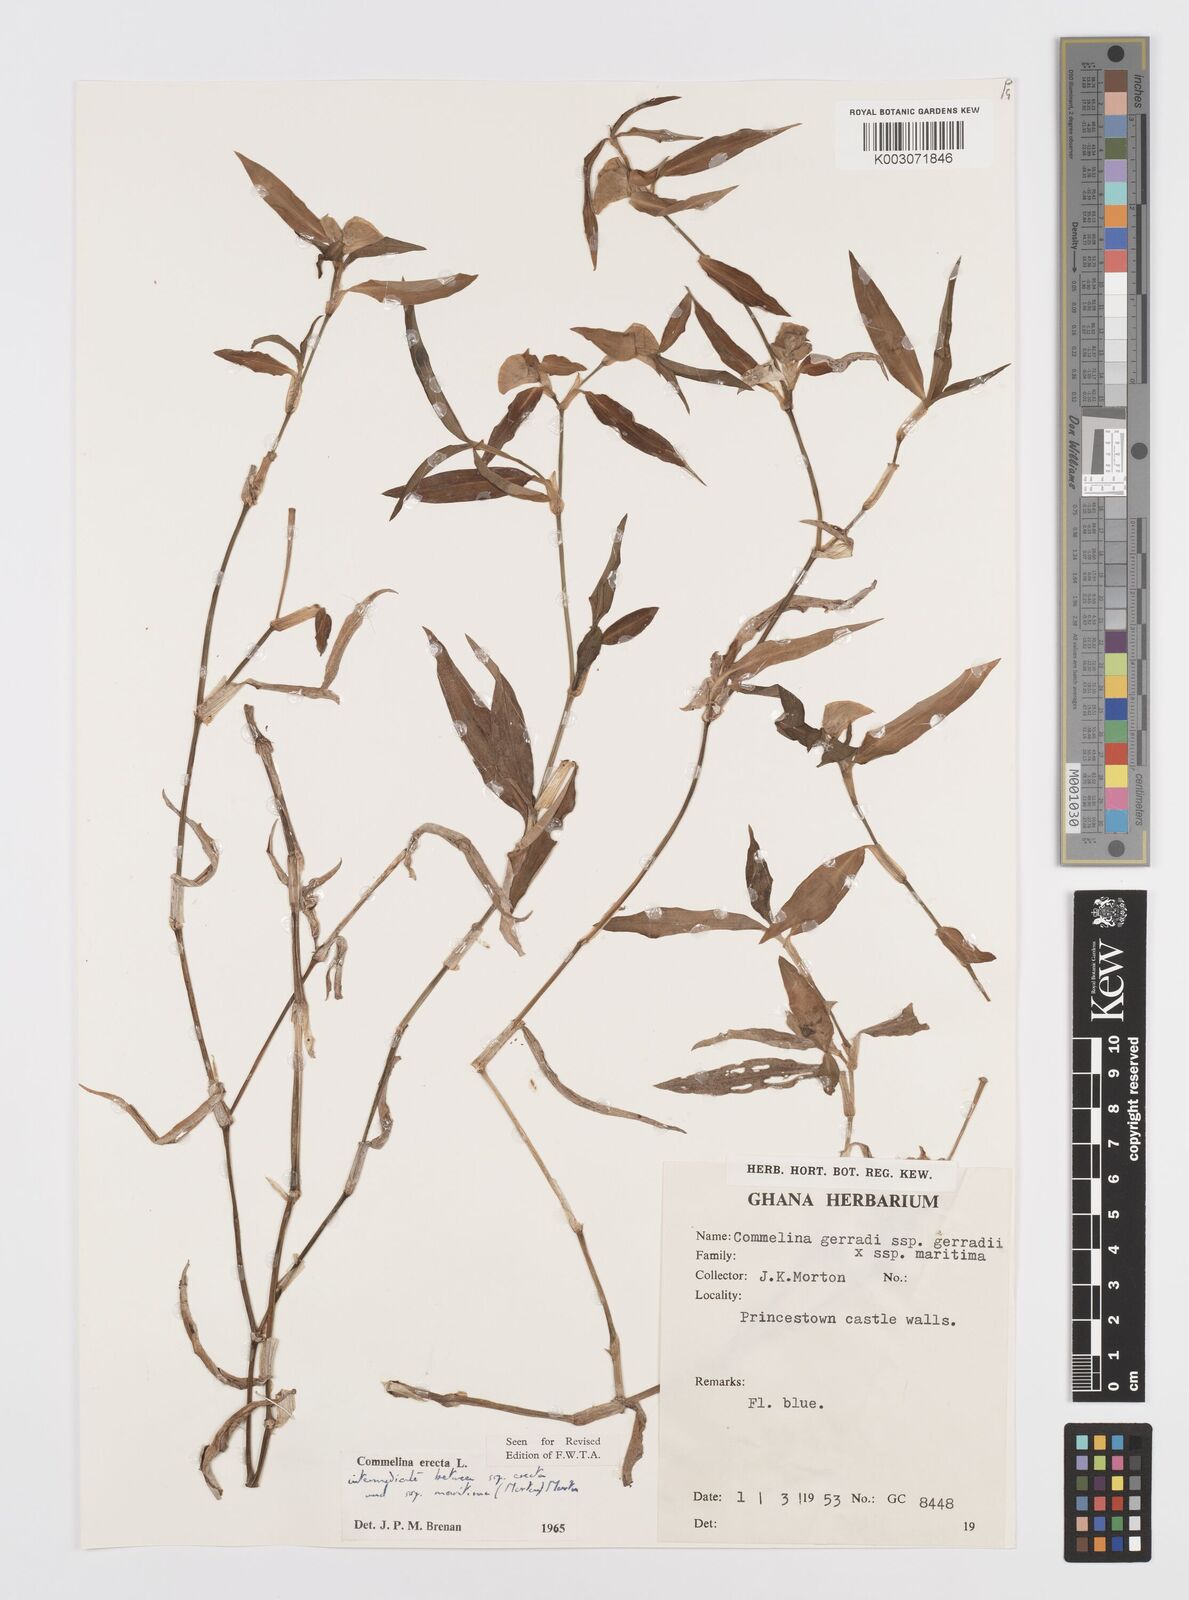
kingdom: Plantae
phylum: Tracheophyta
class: Liliopsida
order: Commelinales
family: Commelinaceae
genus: Commelina
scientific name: Commelina erecta
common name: Blousel blommetjie
